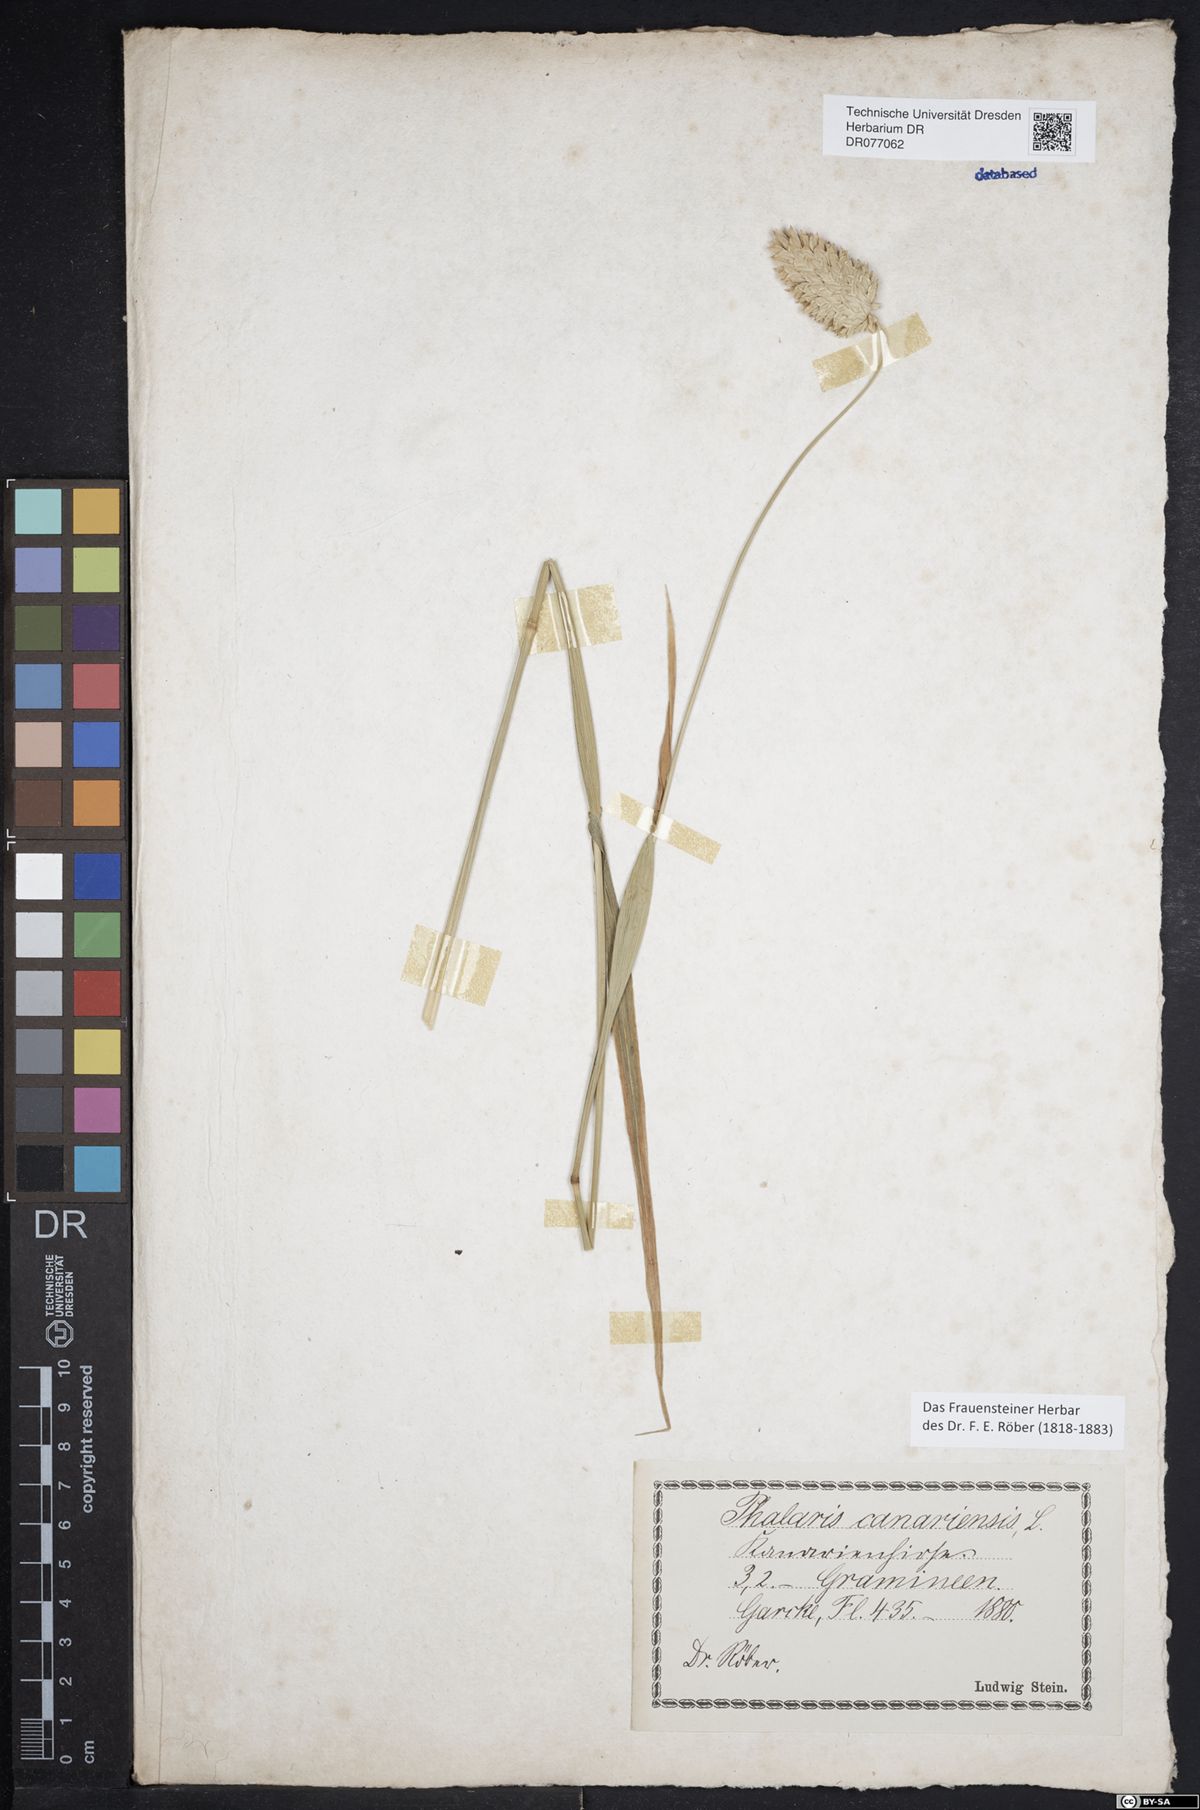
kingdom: Plantae
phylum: Tracheophyta
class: Liliopsida
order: Poales
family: Poaceae
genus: Phalaris
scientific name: Phalaris canariensis
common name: Annual canarygrass
